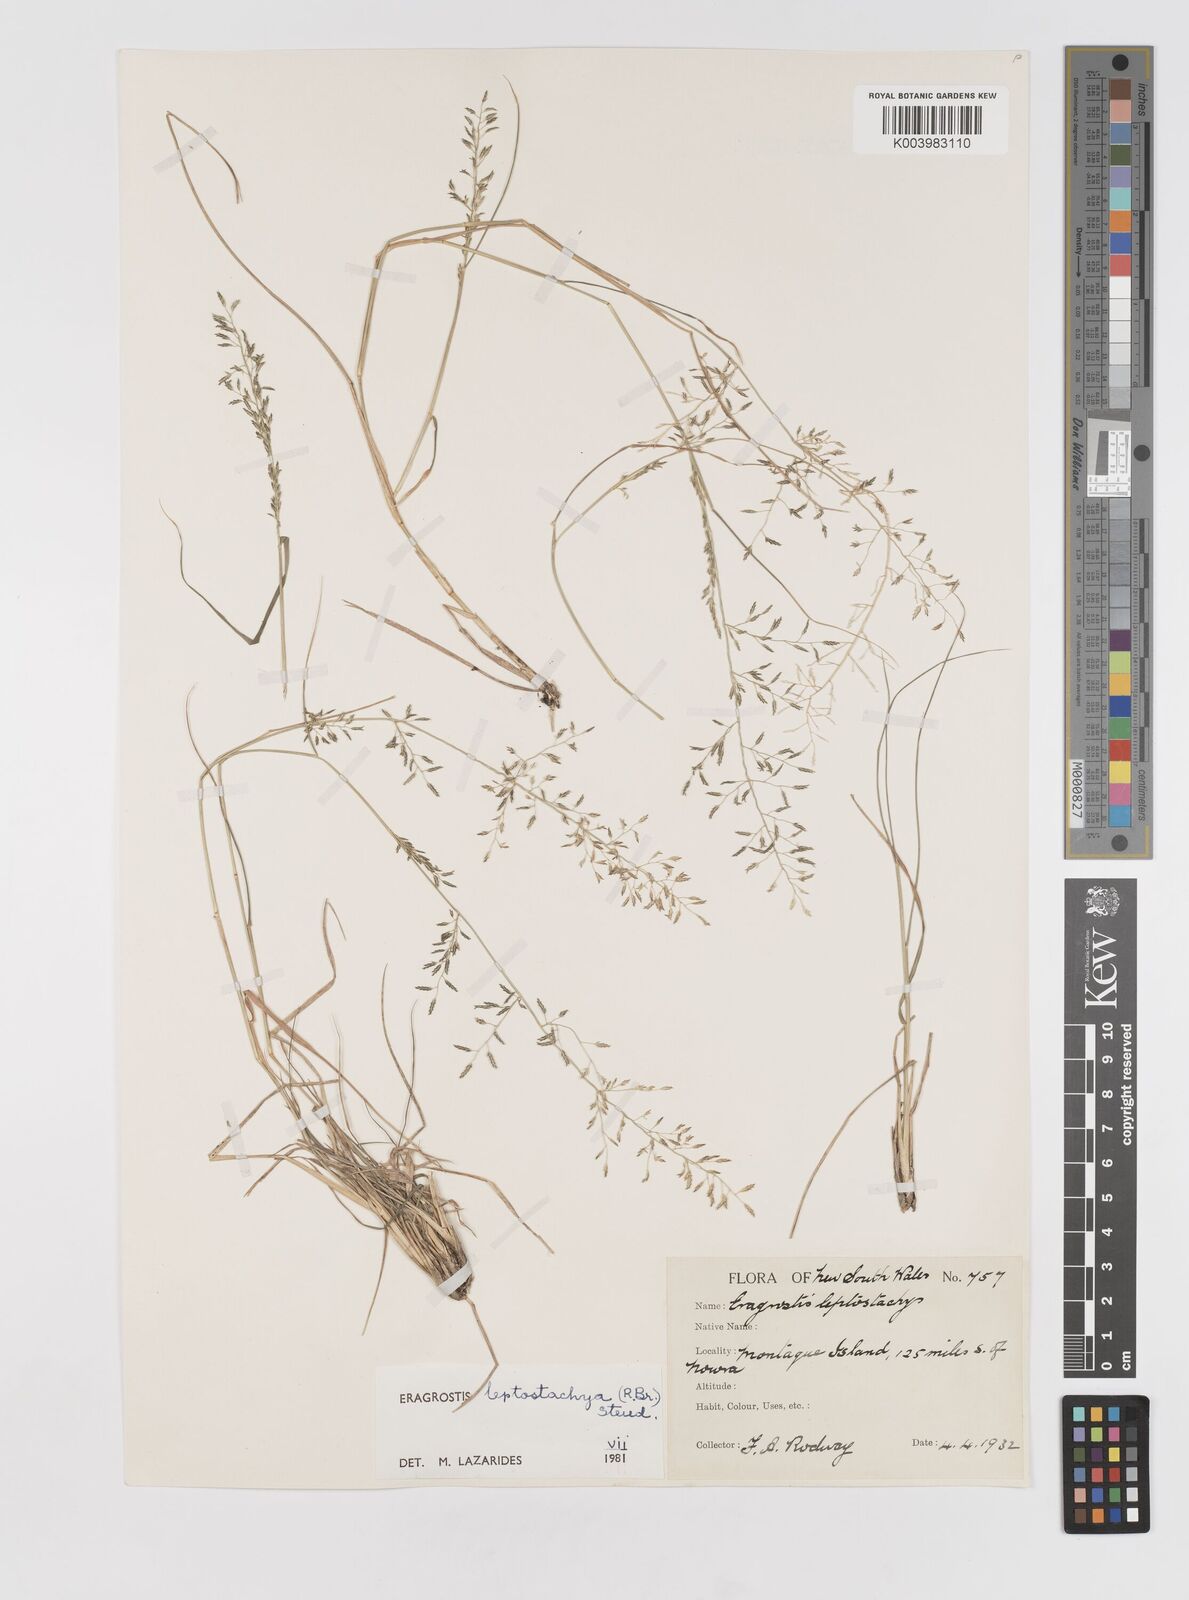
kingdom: Plantae
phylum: Tracheophyta
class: Liliopsida
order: Poales
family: Poaceae
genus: Eragrostis
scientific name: Eragrostis leptostachya
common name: Australian lovegrass
